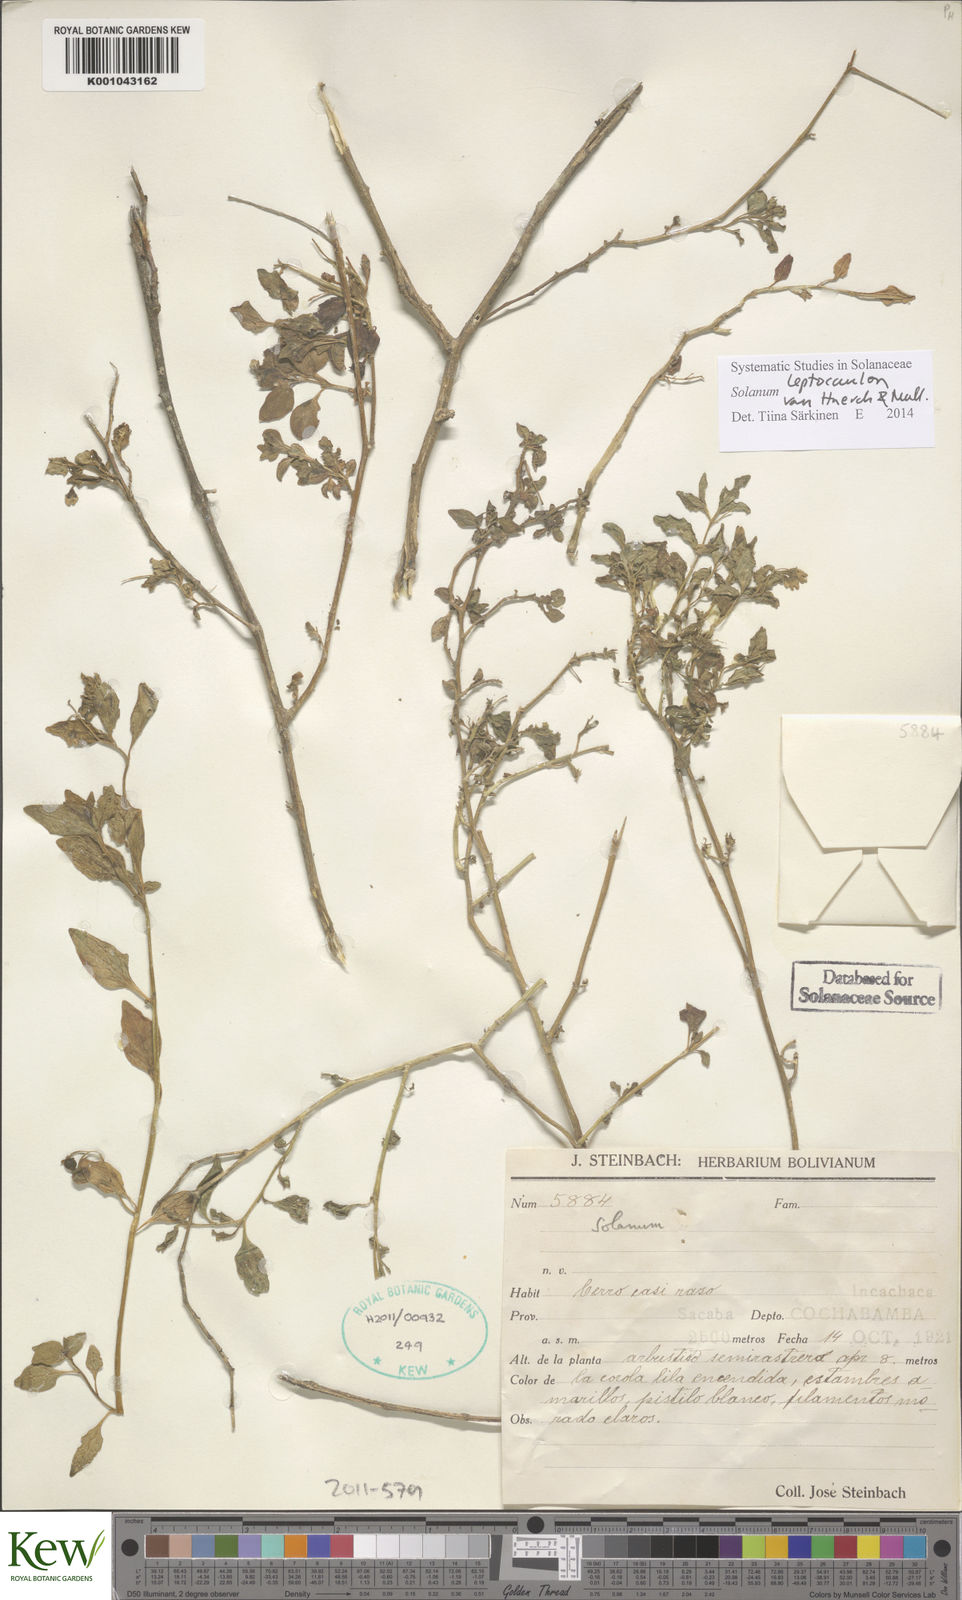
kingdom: Plantae
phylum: Tracheophyta
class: Magnoliopsida
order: Solanales
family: Solanaceae
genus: Solanum
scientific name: Solanum
